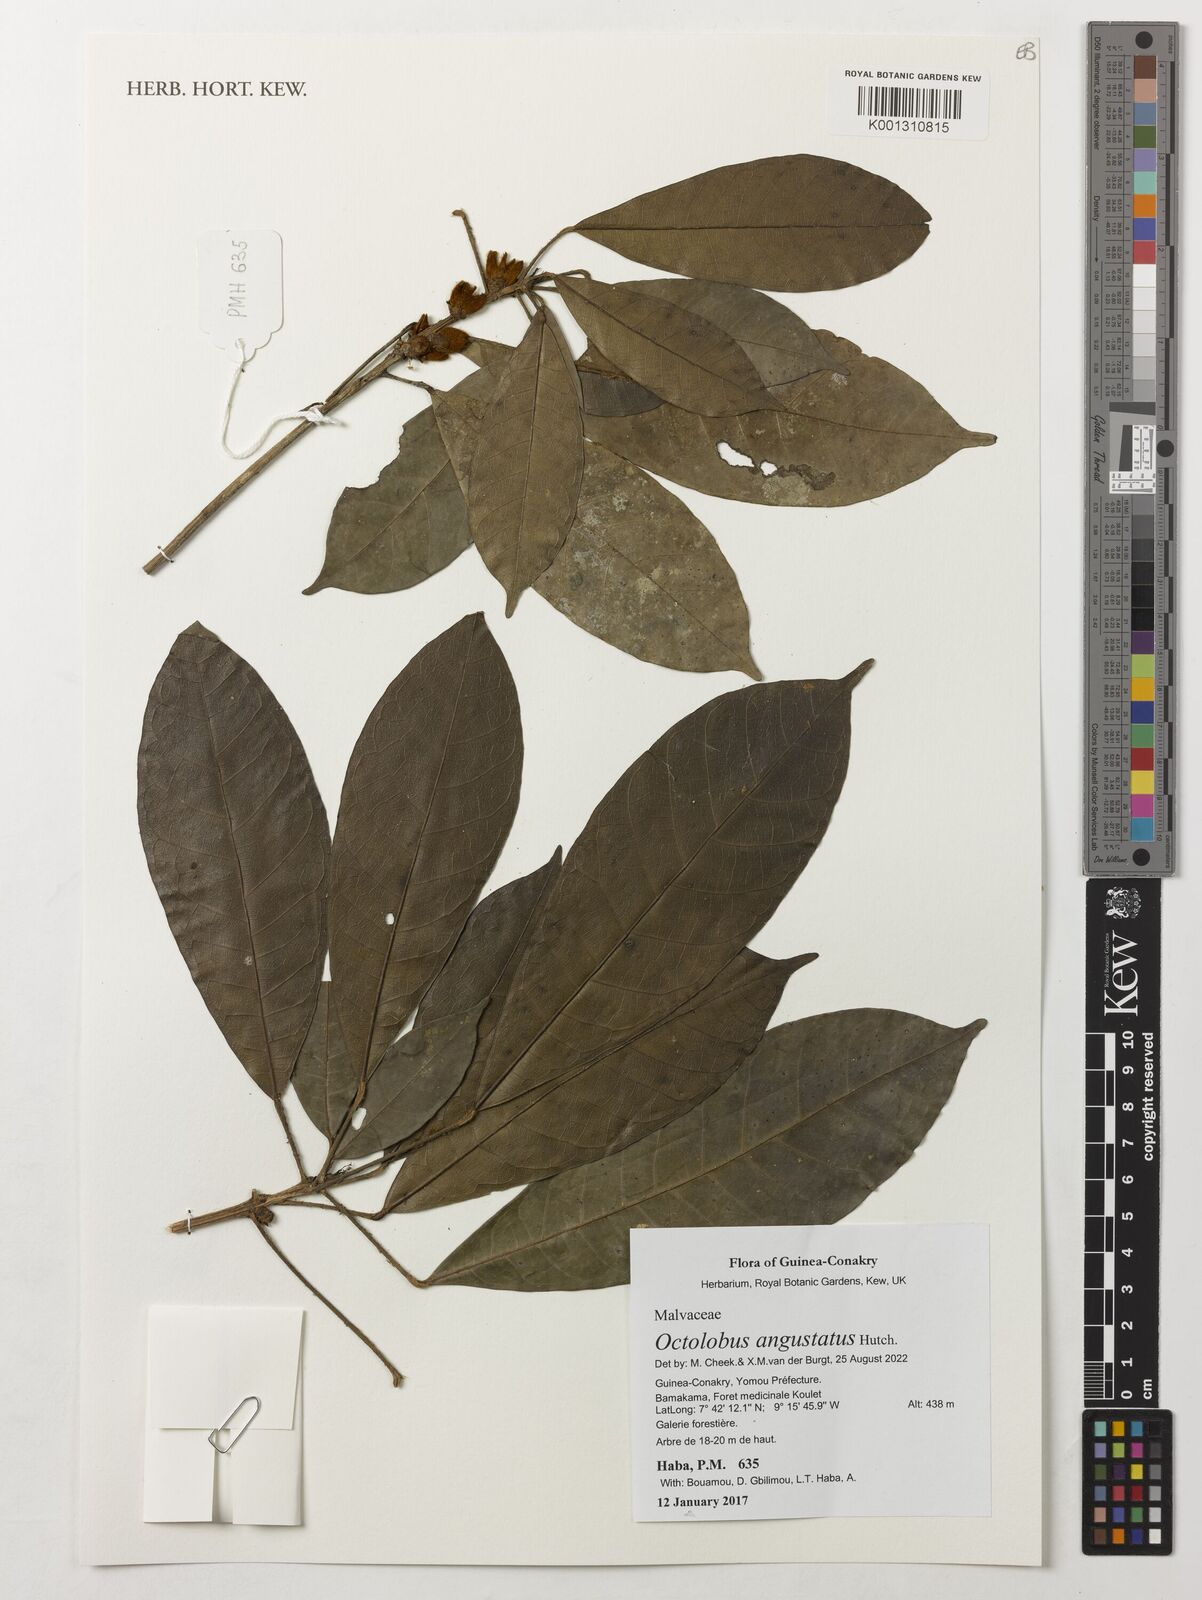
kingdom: Plantae
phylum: Tracheophyta
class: Magnoliopsida
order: Malvales
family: Malvaceae
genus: Octolobus
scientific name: Octolobus spectabilis
